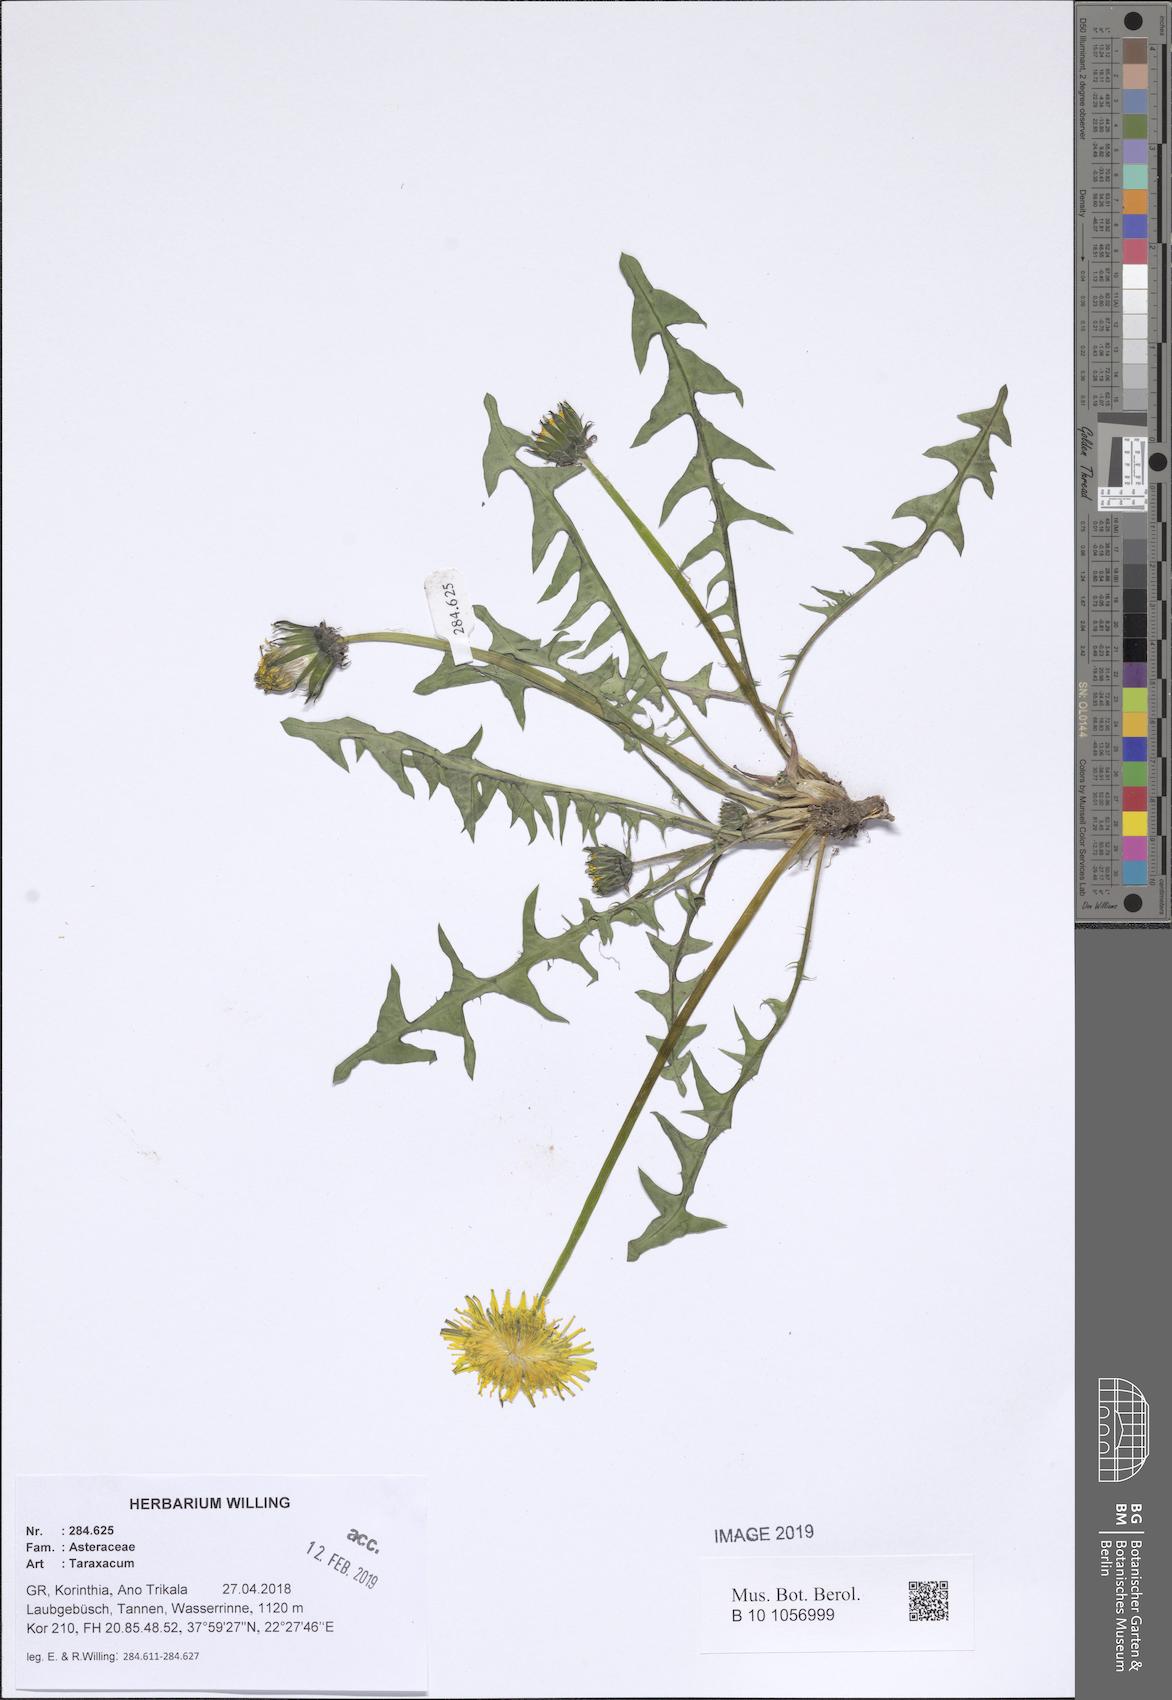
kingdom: Plantae
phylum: Tracheophyta
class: Magnoliopsida
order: Asterales
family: Asteraceae
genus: Taraxacum
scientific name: Taraxacum
